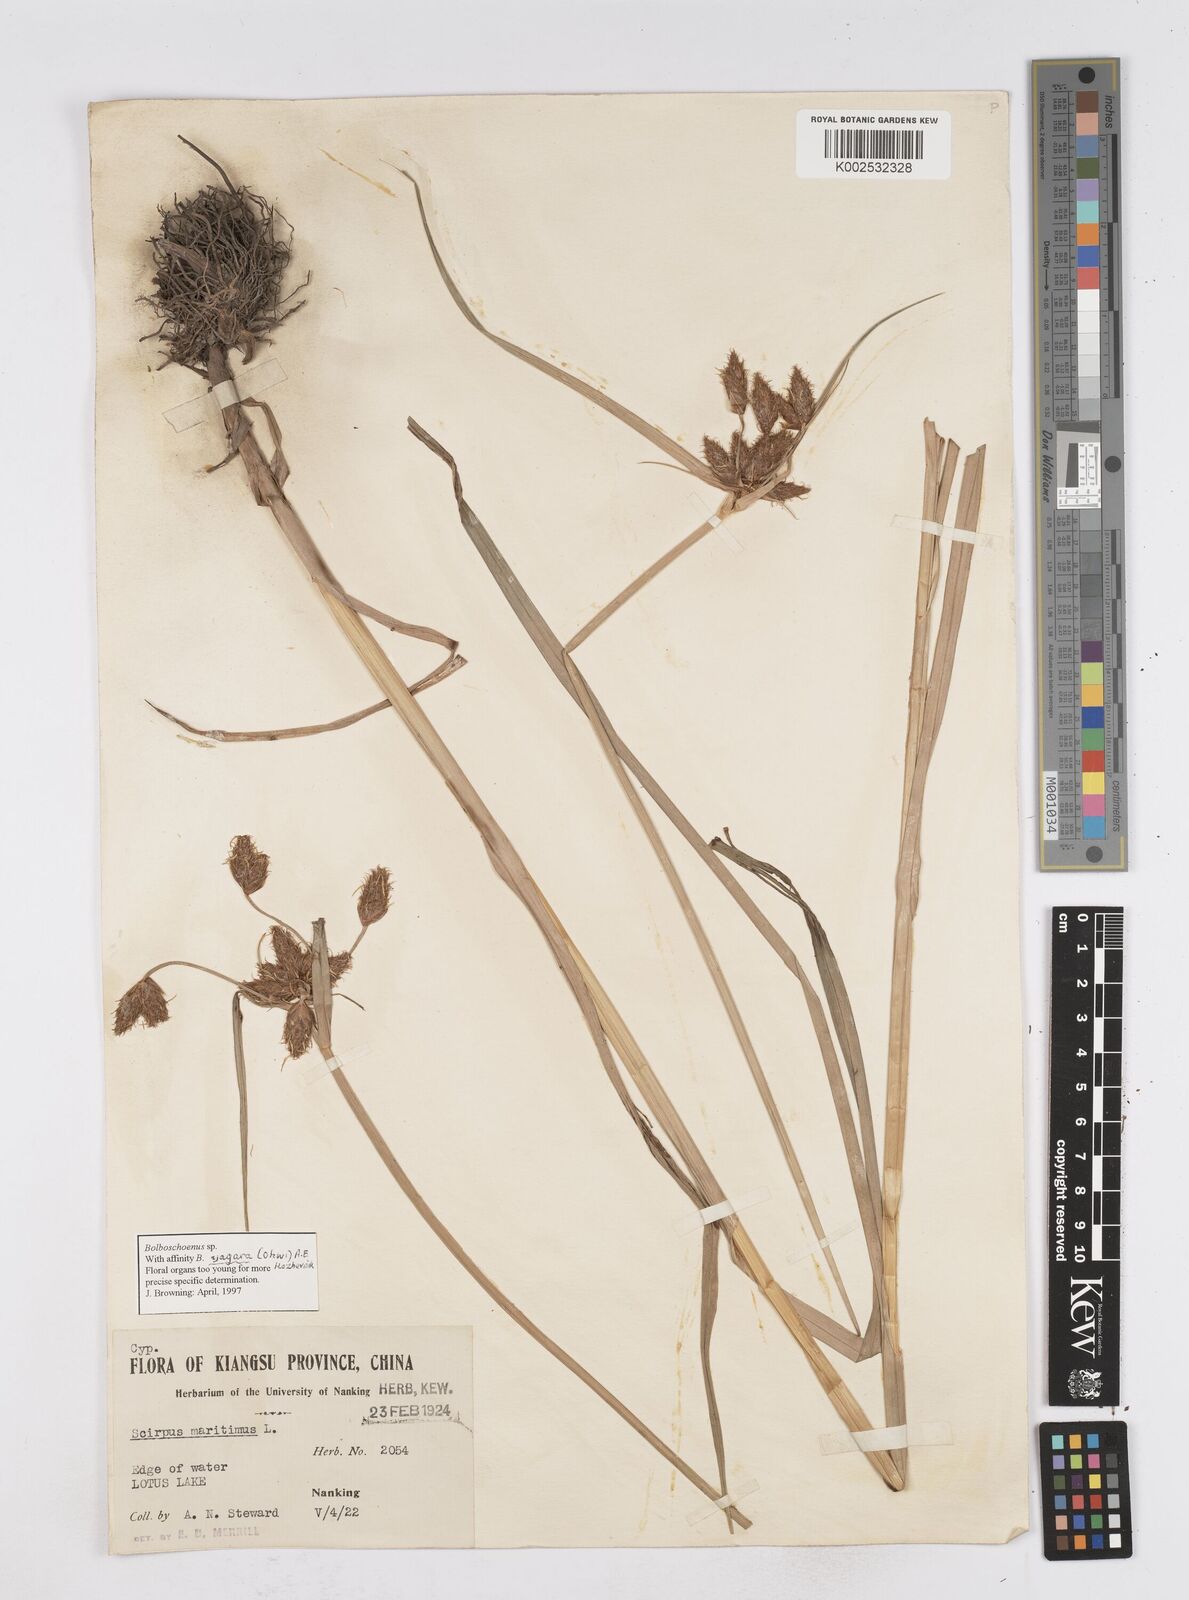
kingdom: Plantae
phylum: Tracheophyta
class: Liliopsida
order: Poales
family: Cyperaceae
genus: Bolboschoenus
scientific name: Bolboschoenus maritimus
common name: Sea club-rush
